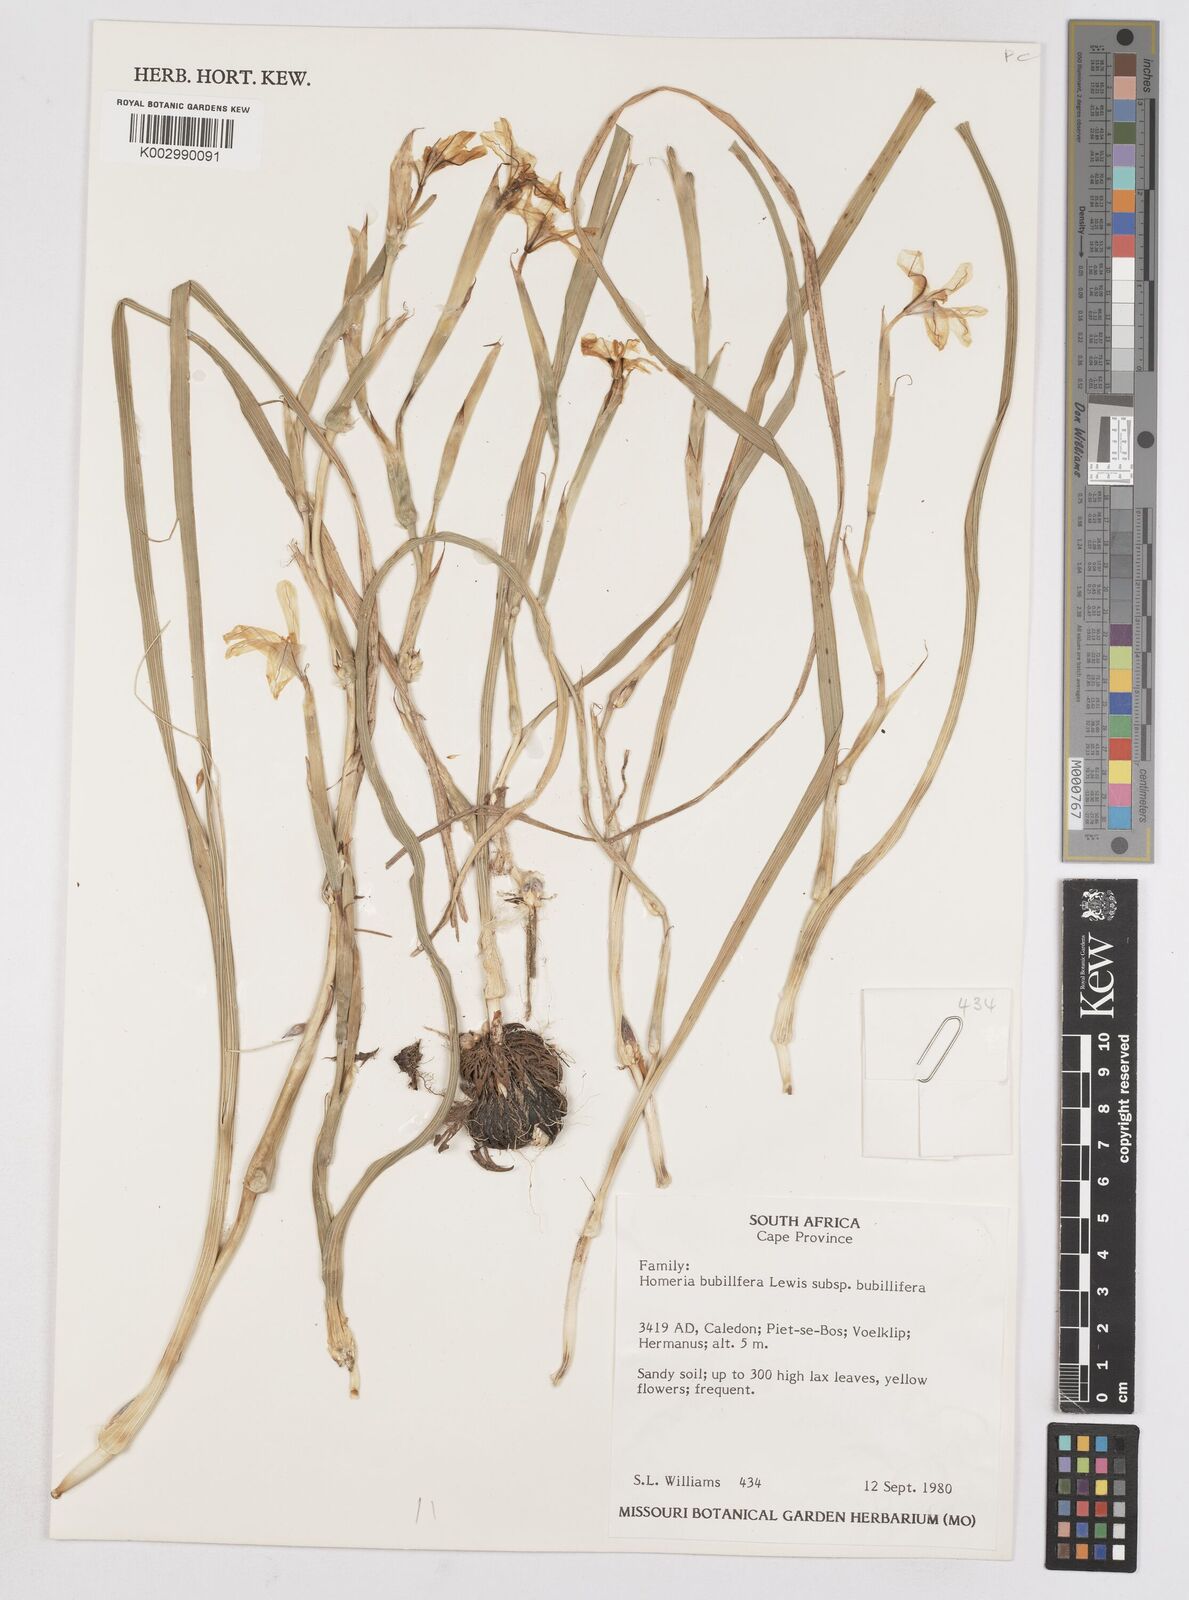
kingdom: Plantae
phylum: Tracheophyta
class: Liliopsida
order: Asparagales
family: Iridaceae
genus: Moraea
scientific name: Moraea bulbillifera
